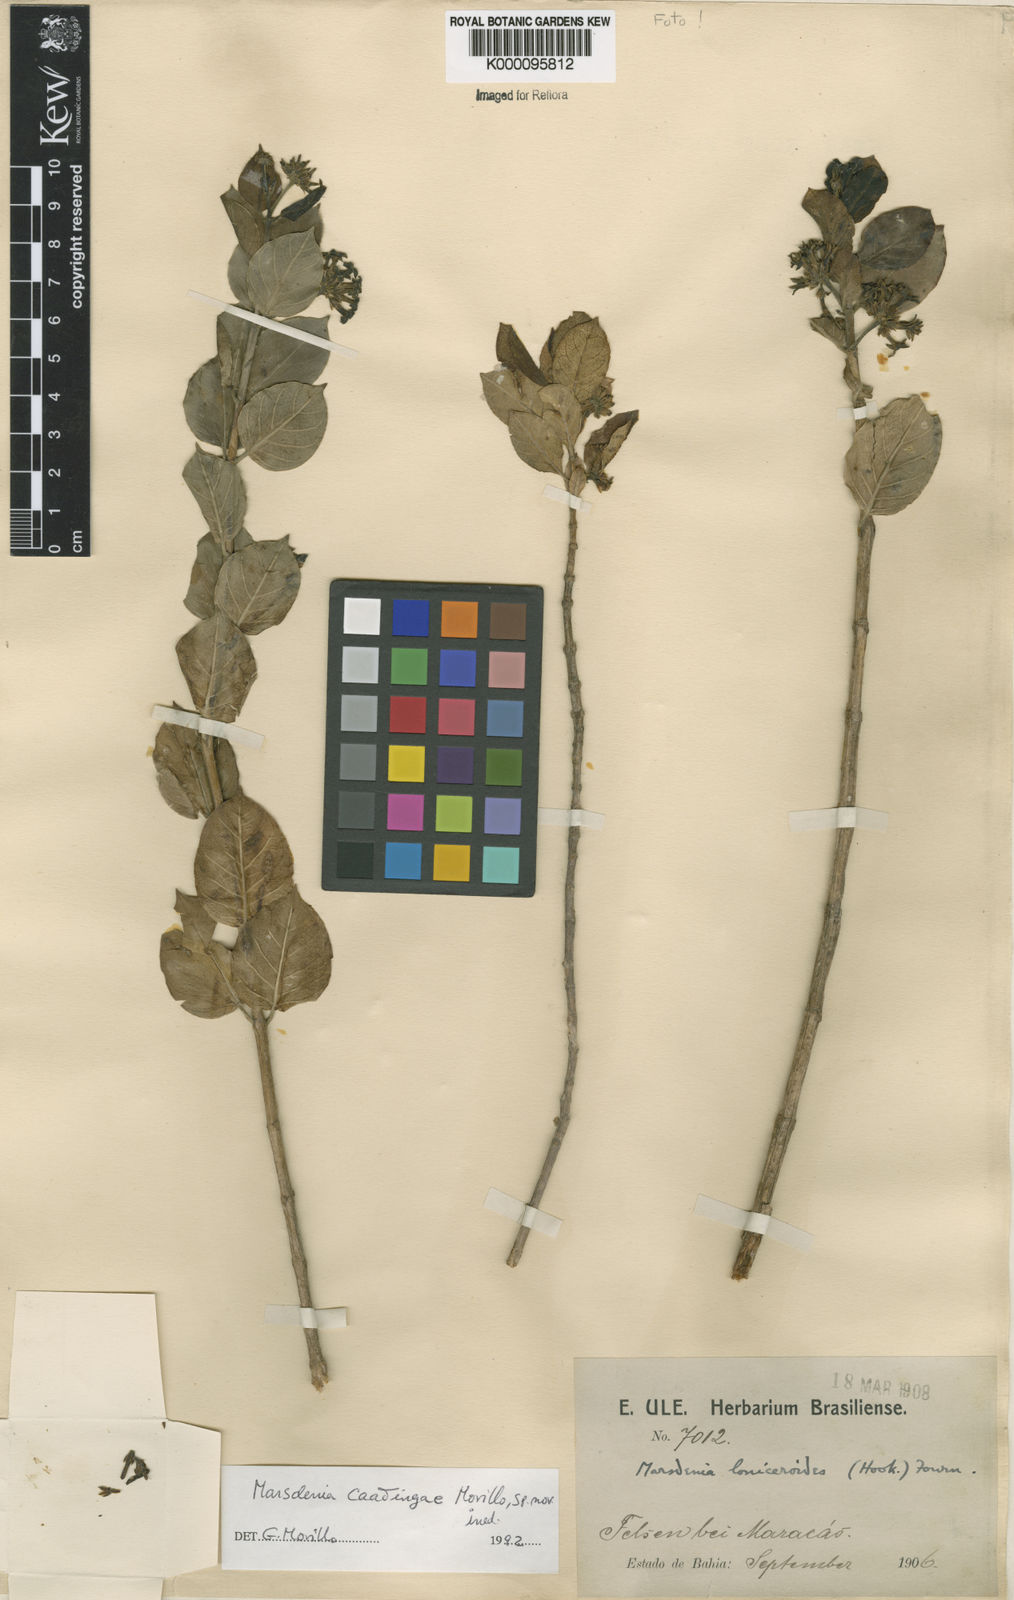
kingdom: Plantae
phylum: Tracheophyta
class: Magnoliopsida
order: Gentianales
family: Apocynaceae
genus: Ruehssia
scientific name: Ruehssia caatingae
